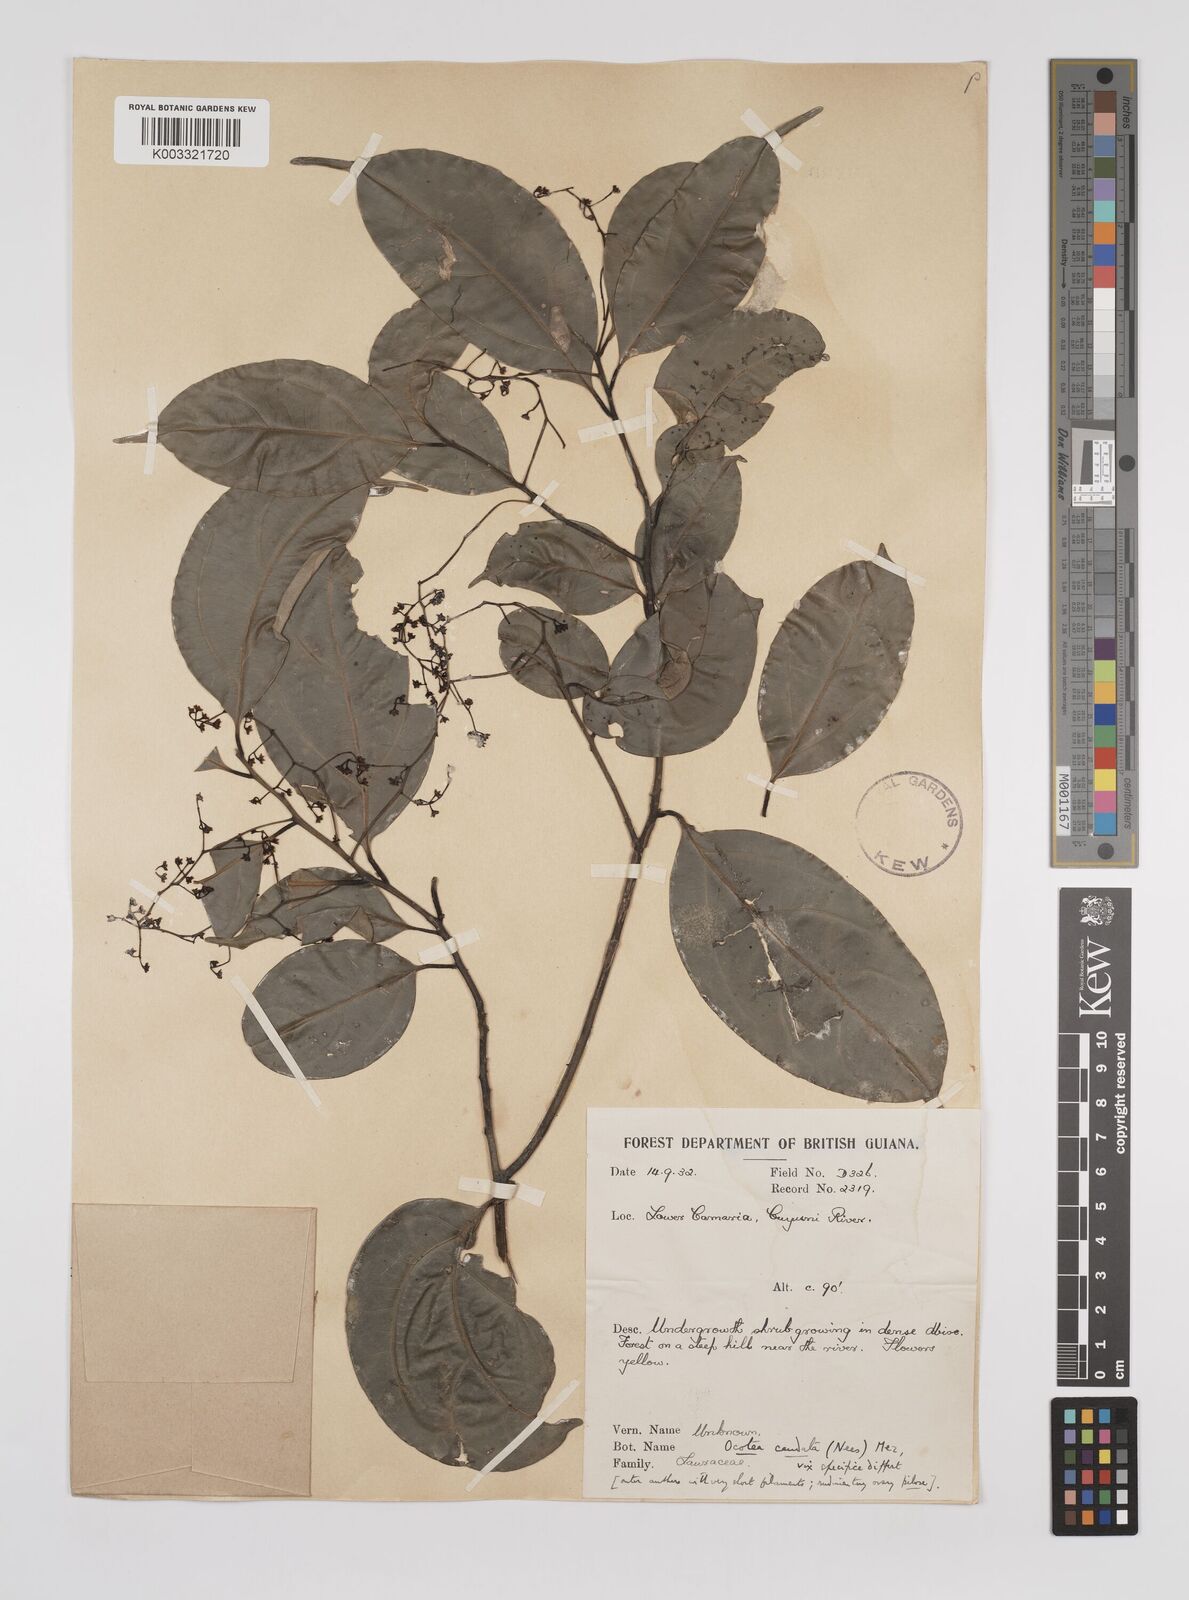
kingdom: Plantae
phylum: Tracheophyta
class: Magnoliopsida
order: Laurales
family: Lauraceae
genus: Ocotea
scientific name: Ocotea leptobotra
